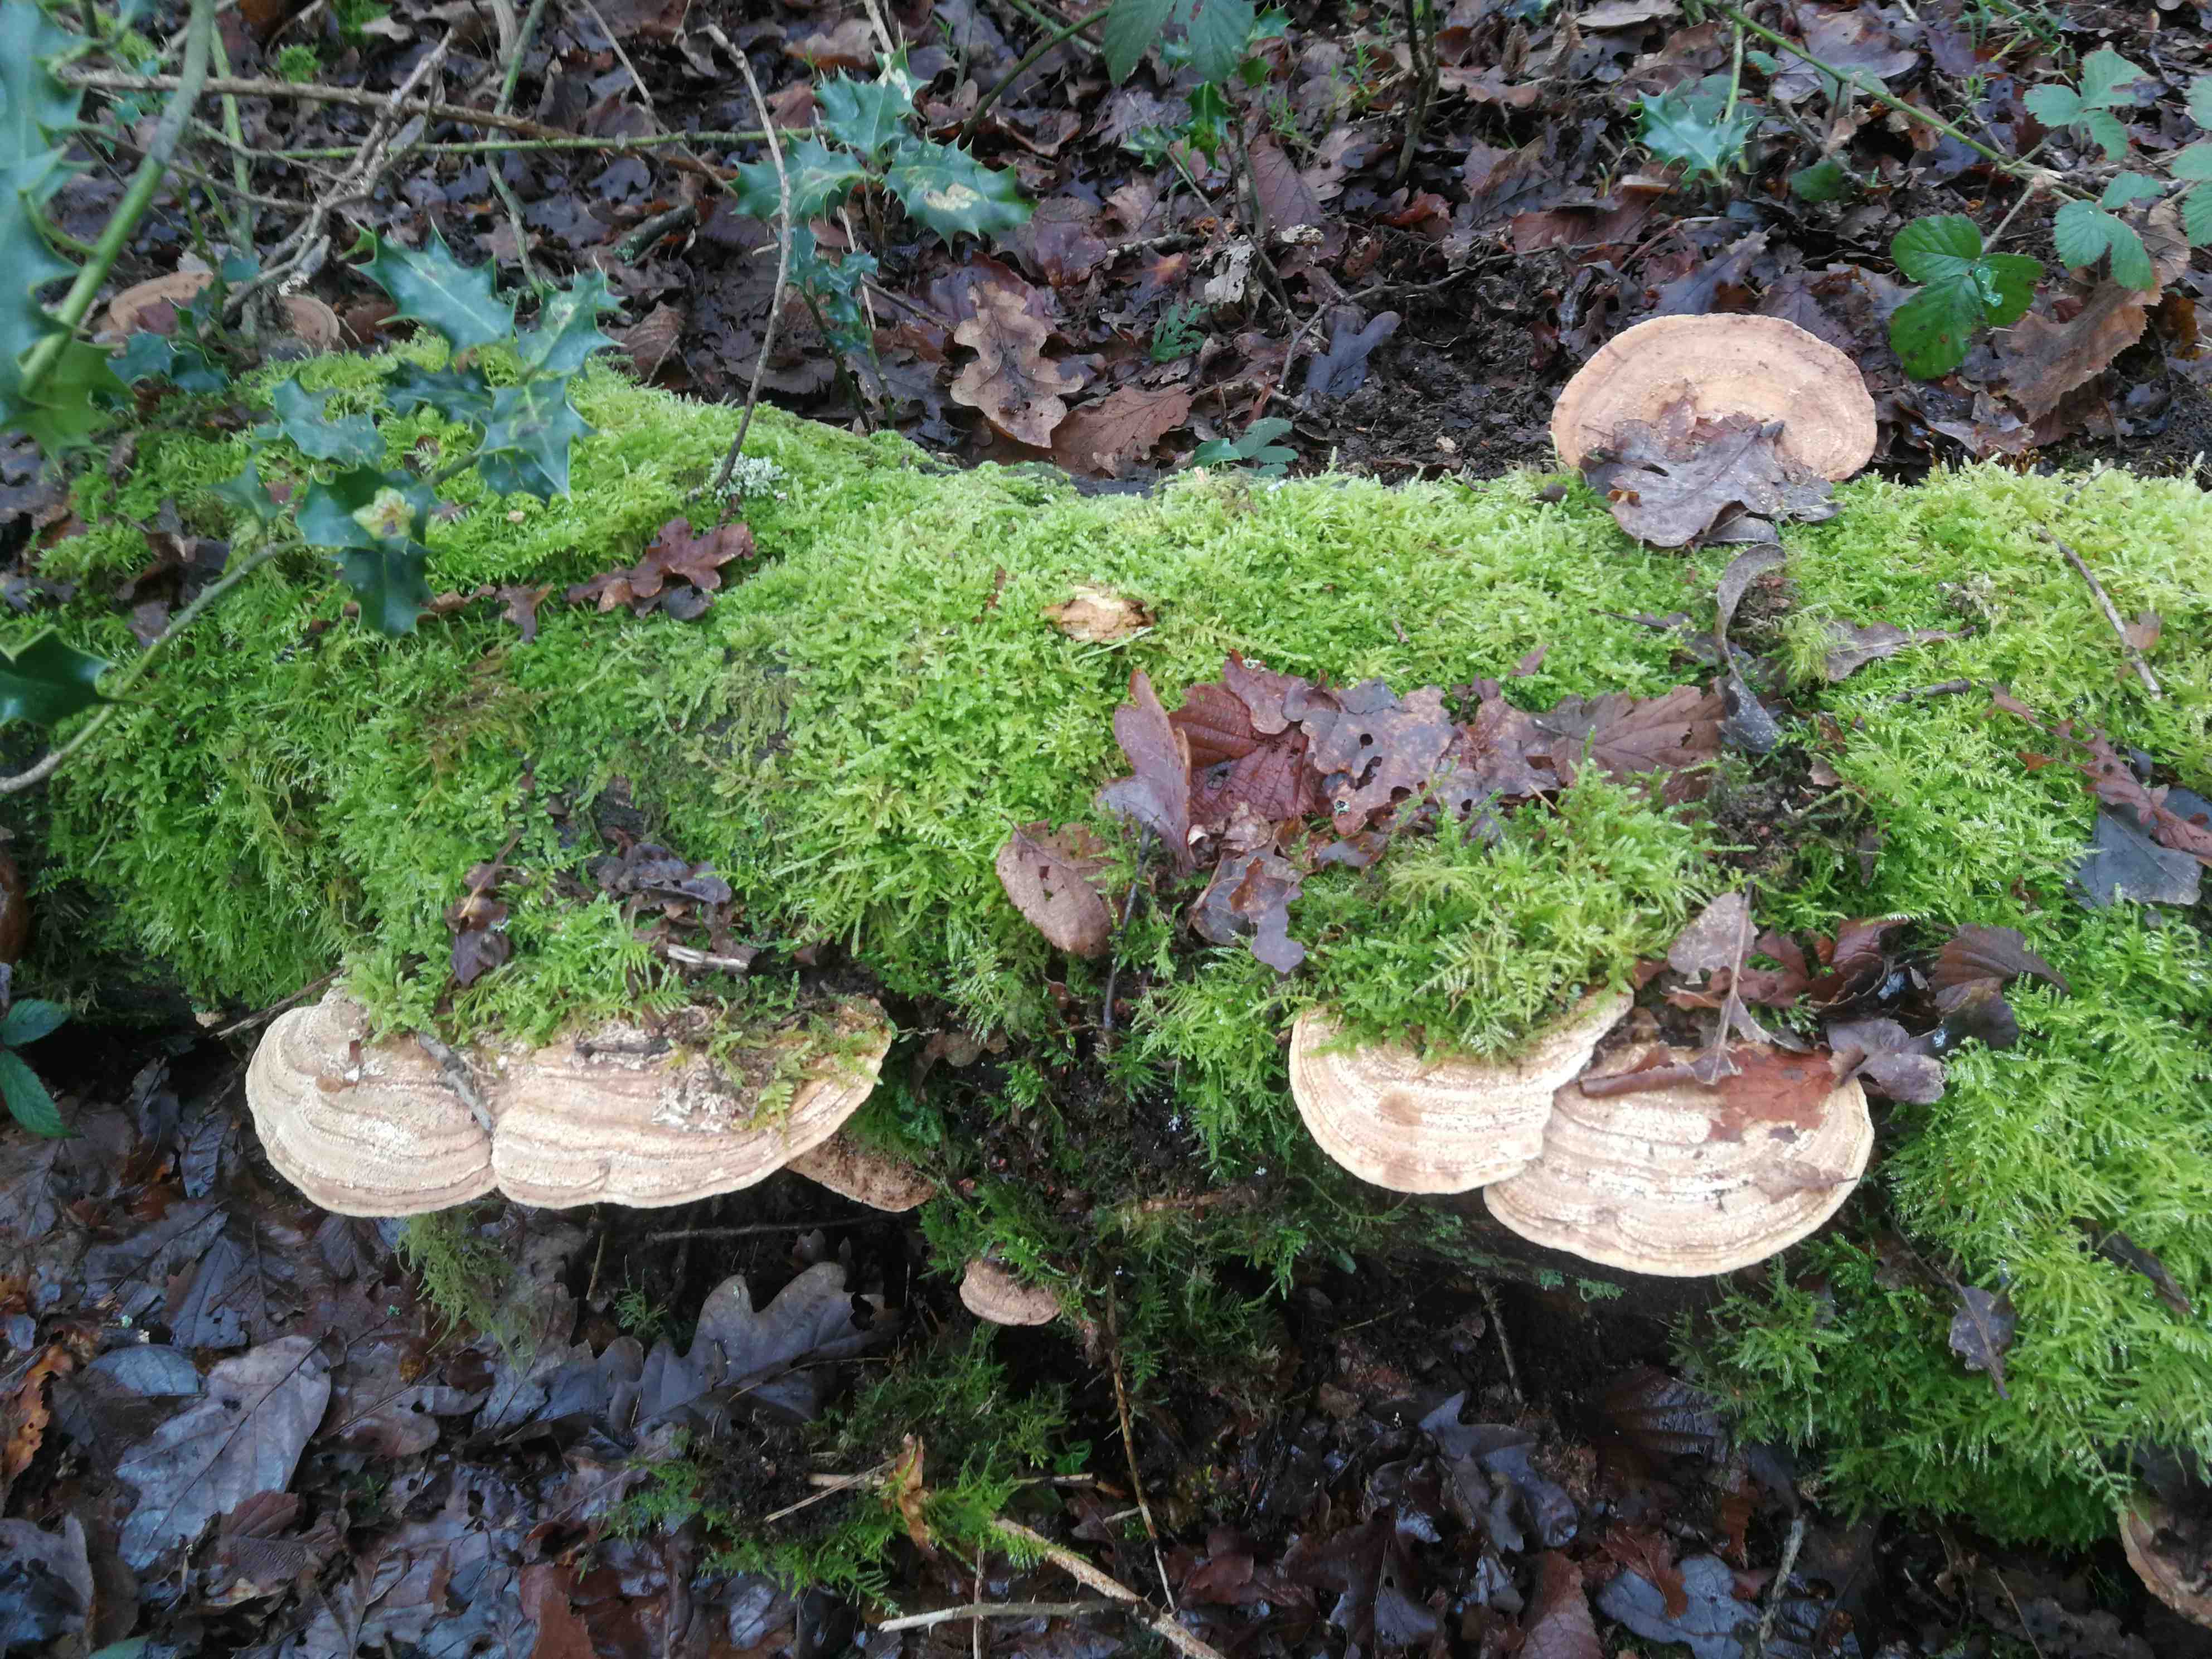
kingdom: Fungi
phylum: Basidiomycota
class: Agaricomycetes
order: Polyporales
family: Fomitopsidaceae
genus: Daedalea
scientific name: Daedalea quercina
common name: ege-labyrintsvamp
